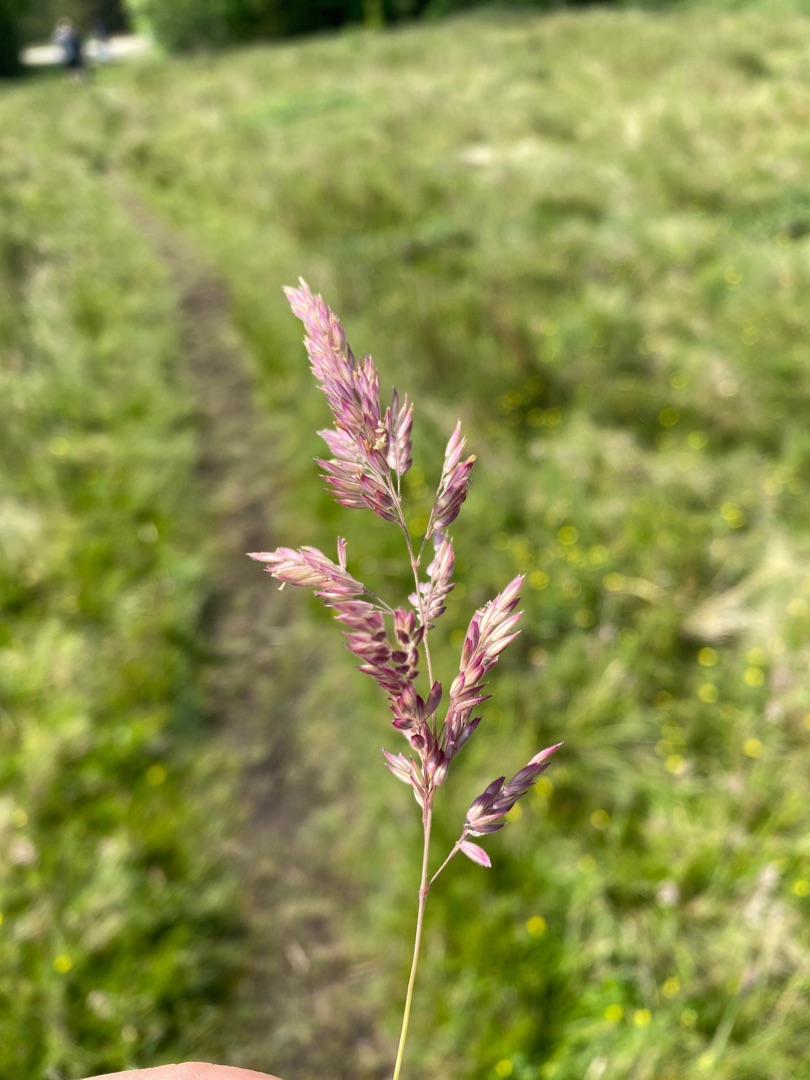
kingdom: Plantae
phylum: Tracheophyta
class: Liliopsida
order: Poales
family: Poaceae
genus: Holcus
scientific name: Holcus lanatus
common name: Fløjlsgræs
